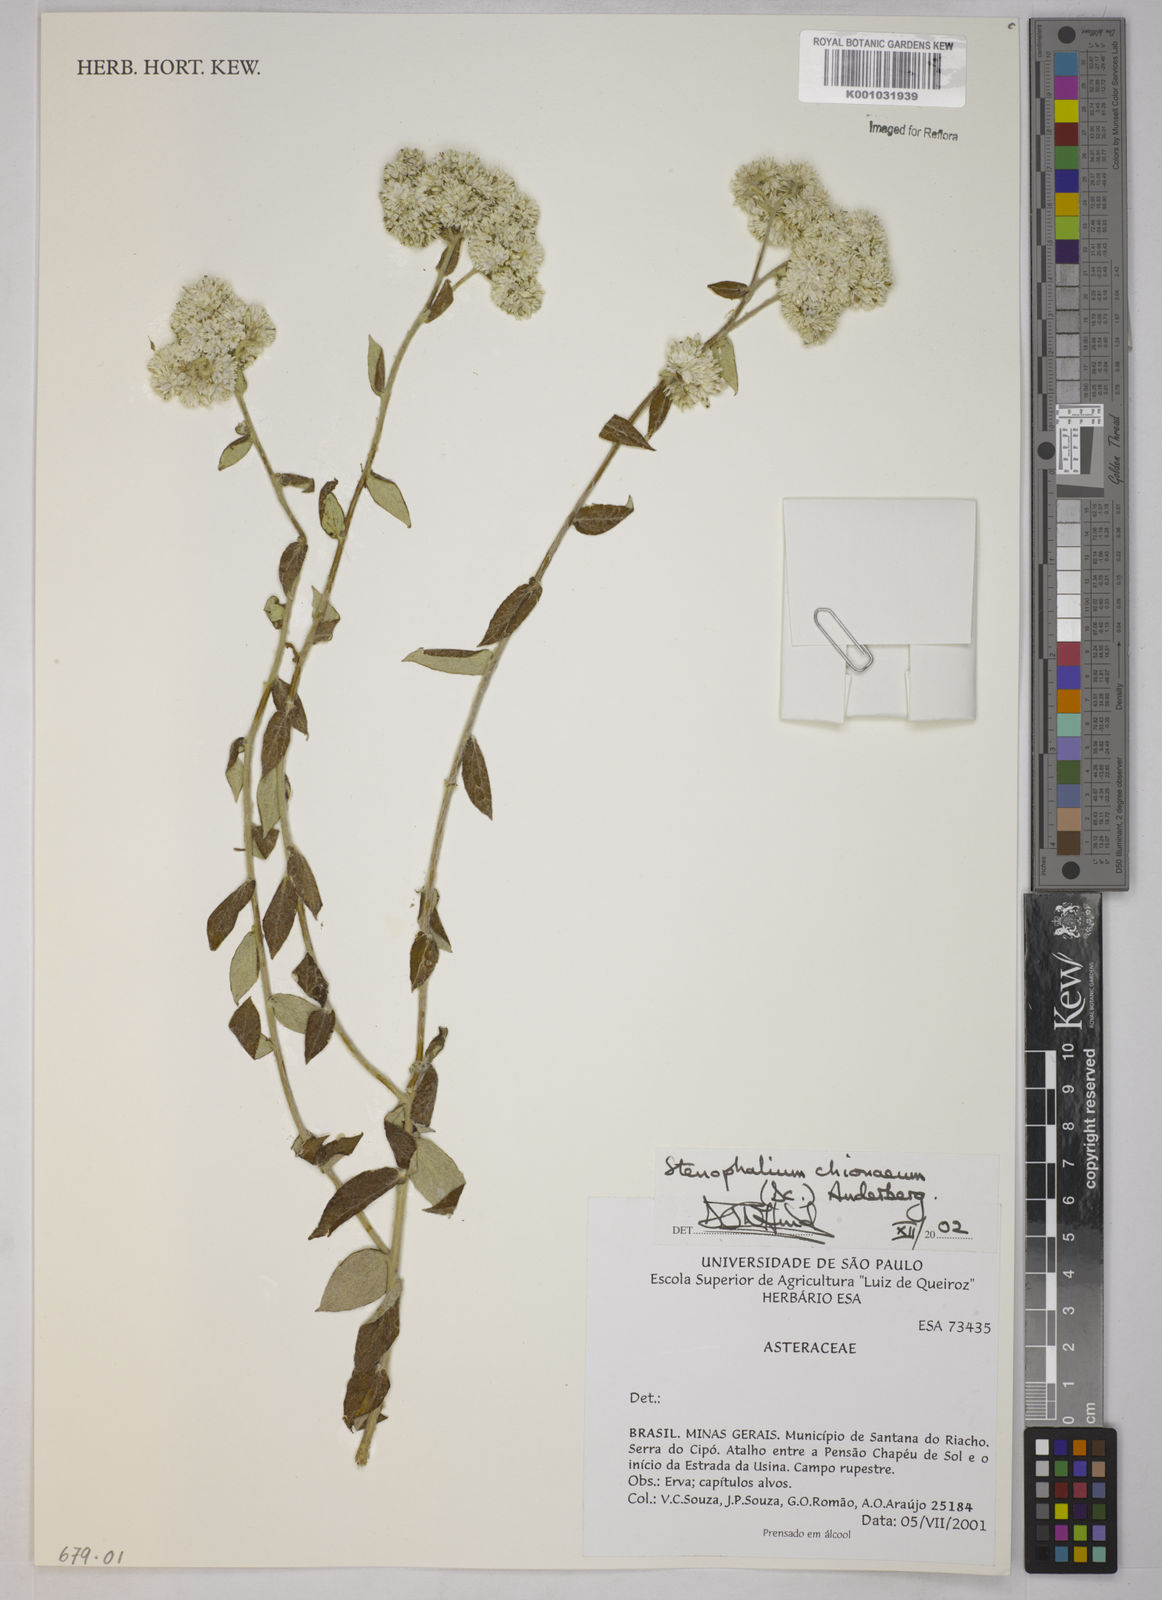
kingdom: Plantae
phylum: Tracheophyta
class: Magnoliopsida
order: Asterales
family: Asteraceae
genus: Achyrocline
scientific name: Achyrocline chionaea
